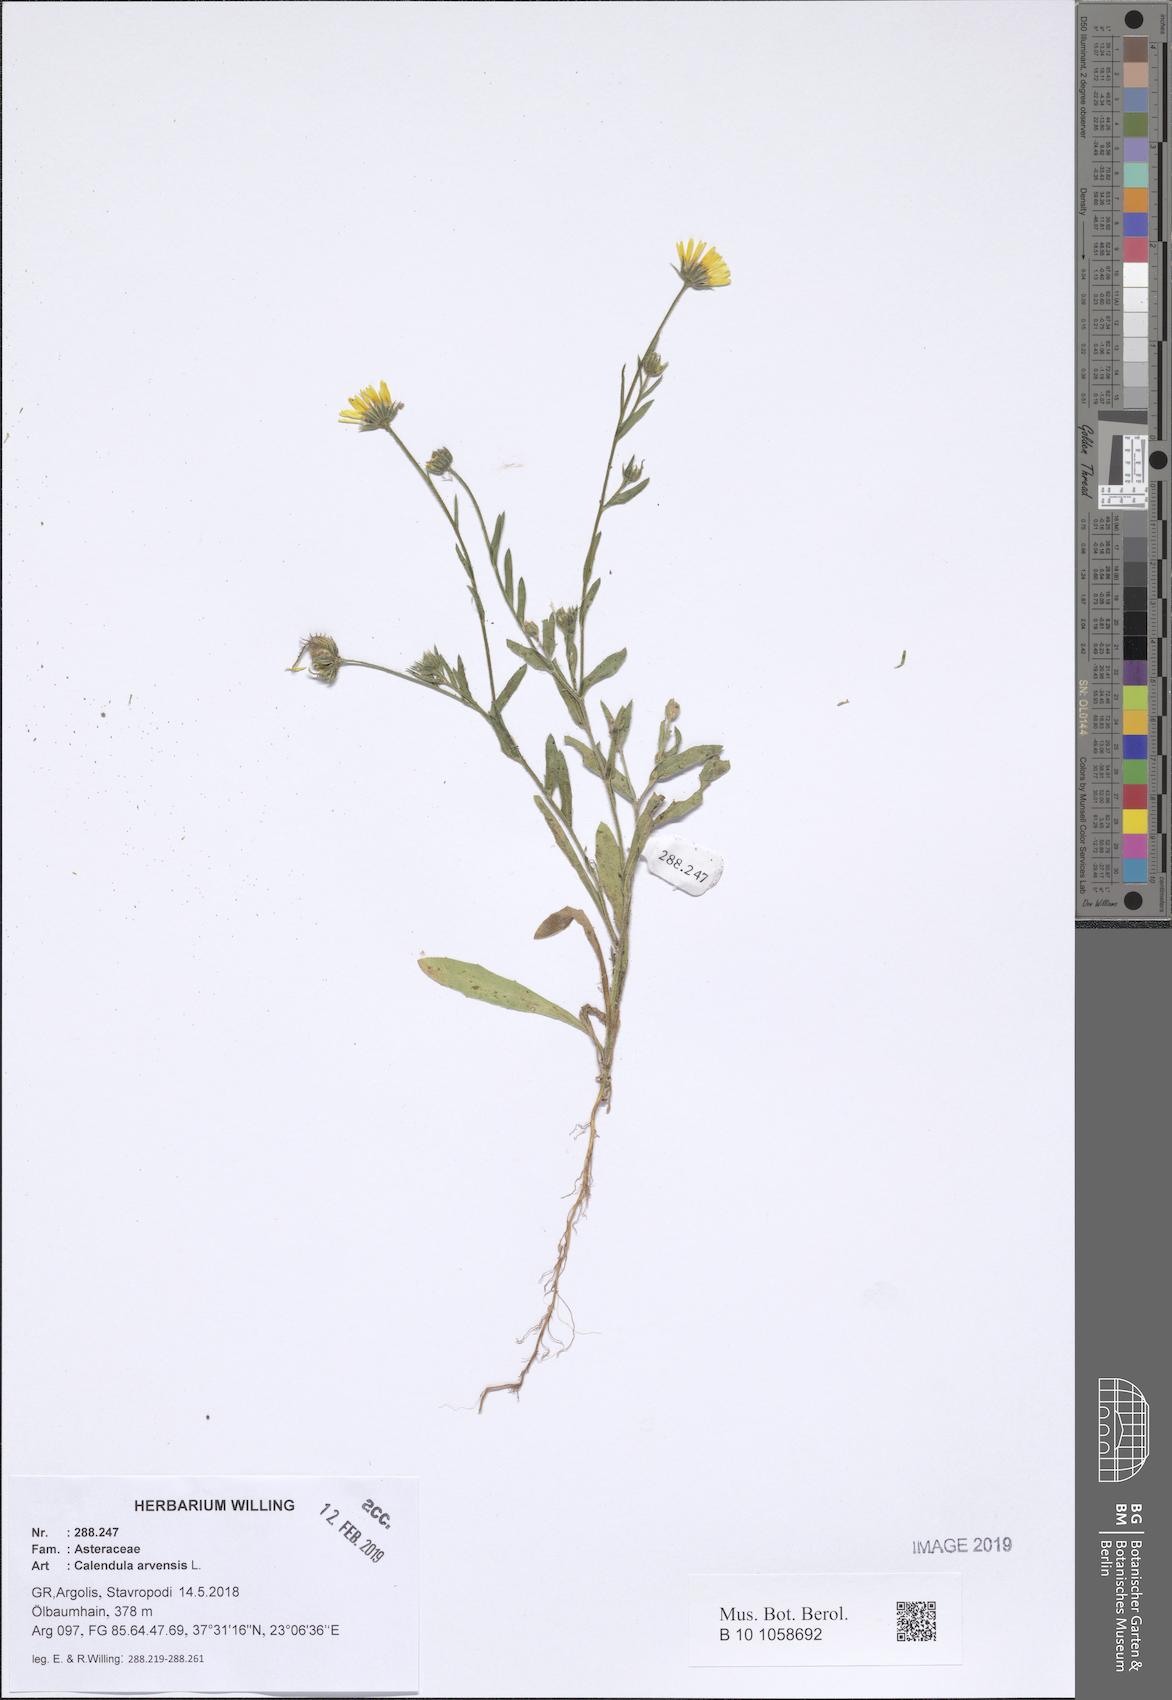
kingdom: Plantae
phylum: Tracheophyta
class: Magnoliopsida
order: Asterales
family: Asteraceae
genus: Calendula
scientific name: Calendula arvensis
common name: Field marigold
